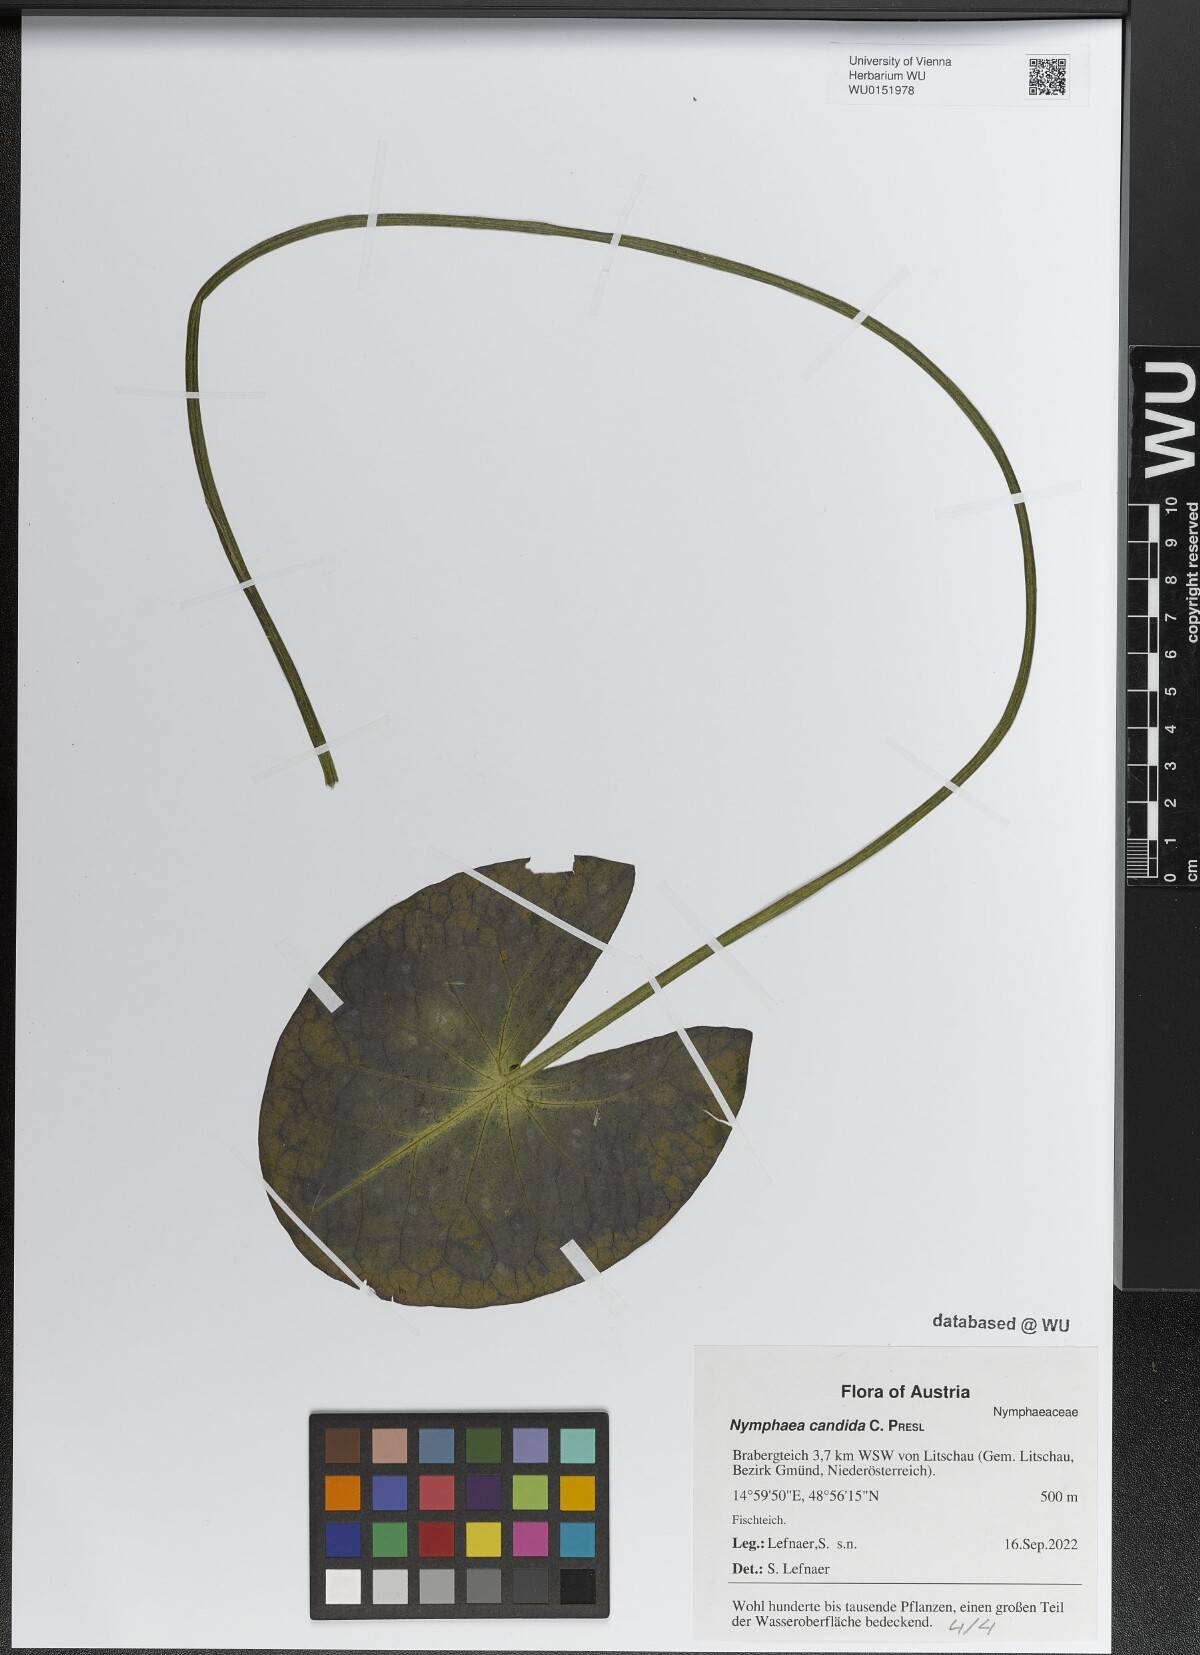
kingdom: Plantae
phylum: Tracheophyta
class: Magnoliopsida
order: Nymphaeales
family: Nymphaeaceae
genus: Nymphaea
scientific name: Nymphaea candida
